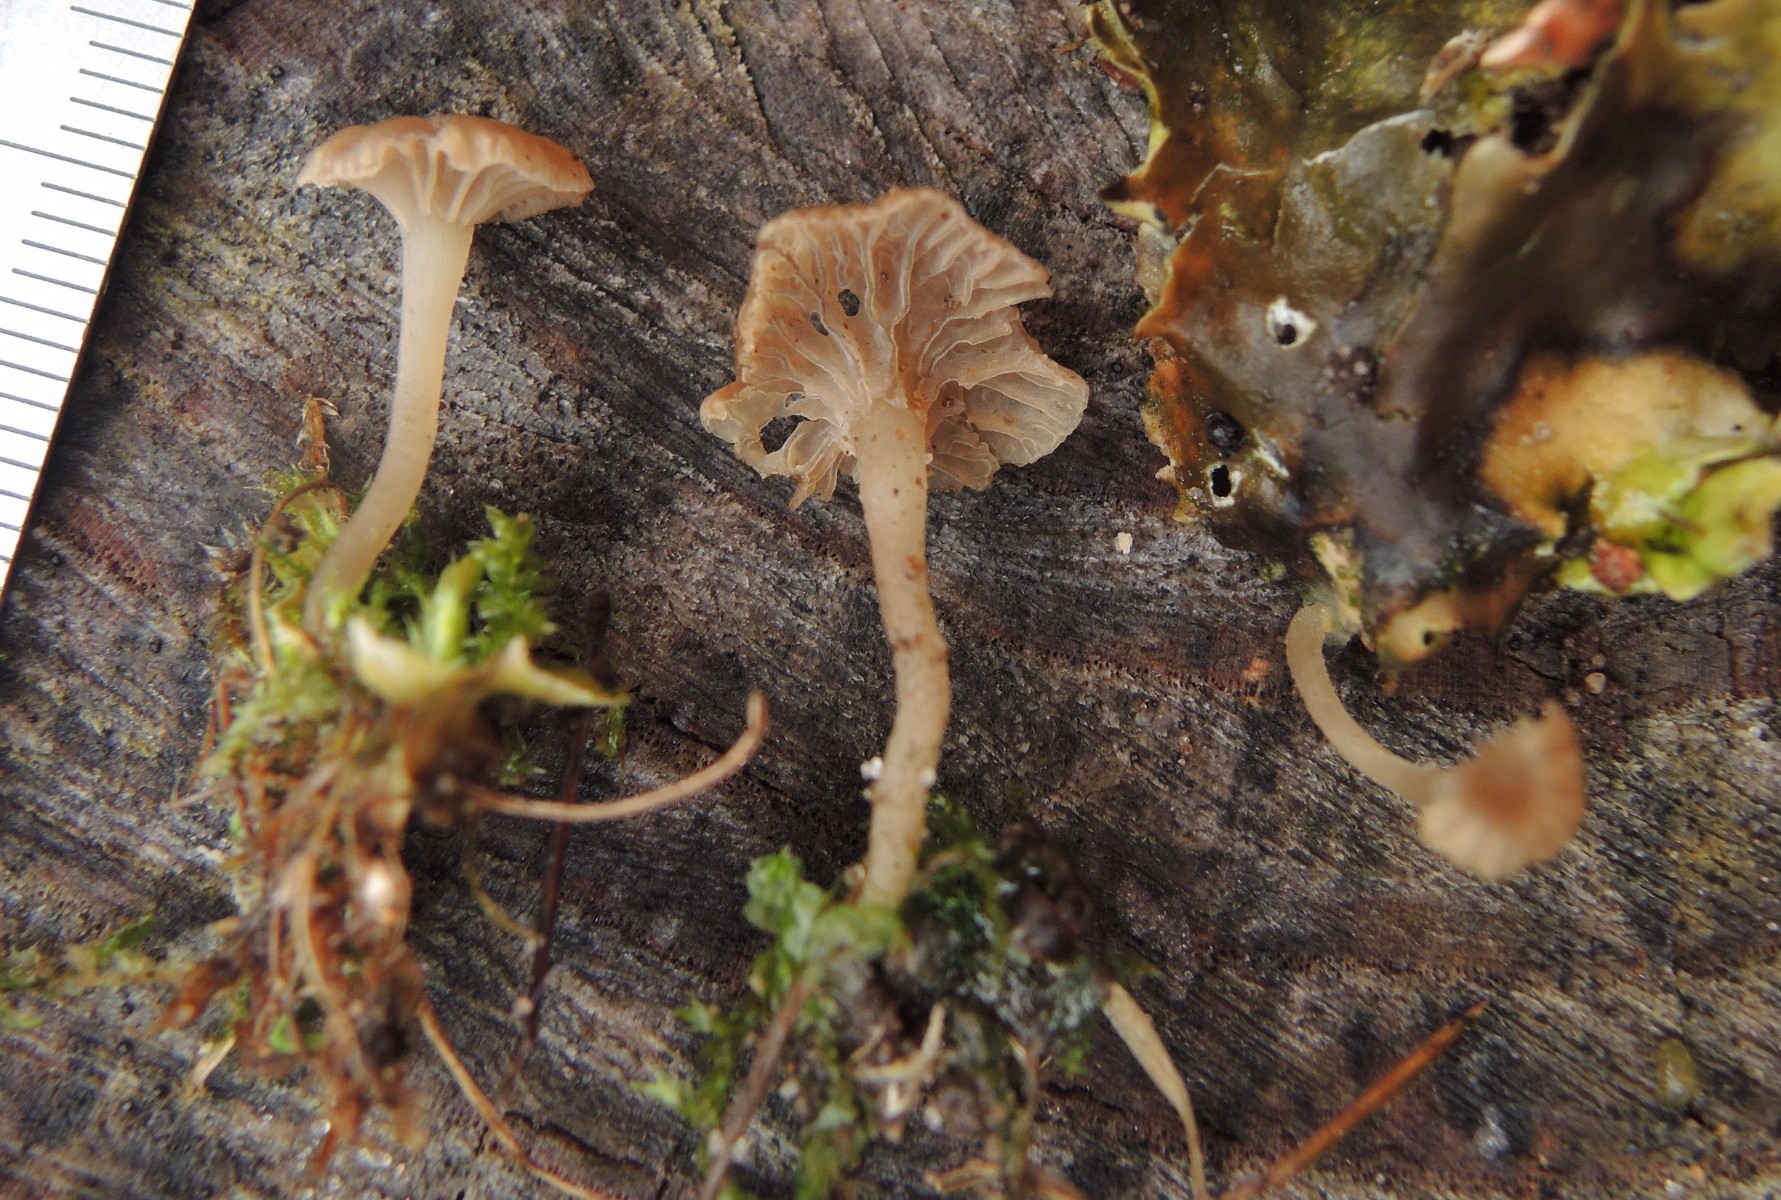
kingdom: Fungi
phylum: Basidiomycota
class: Agaricomycetes
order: Agaricales
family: Hygrophoraceae
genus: Arrhenia
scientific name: Arrhenia peltigerina
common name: skjoldlav-fontænehat
